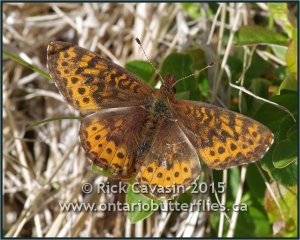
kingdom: Animalia
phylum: Arthropoda
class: Insecta
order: Lepidoptera
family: Nymphalidae
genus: Clossiana
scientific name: Clossiana toddi
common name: Meadow Fritillary
